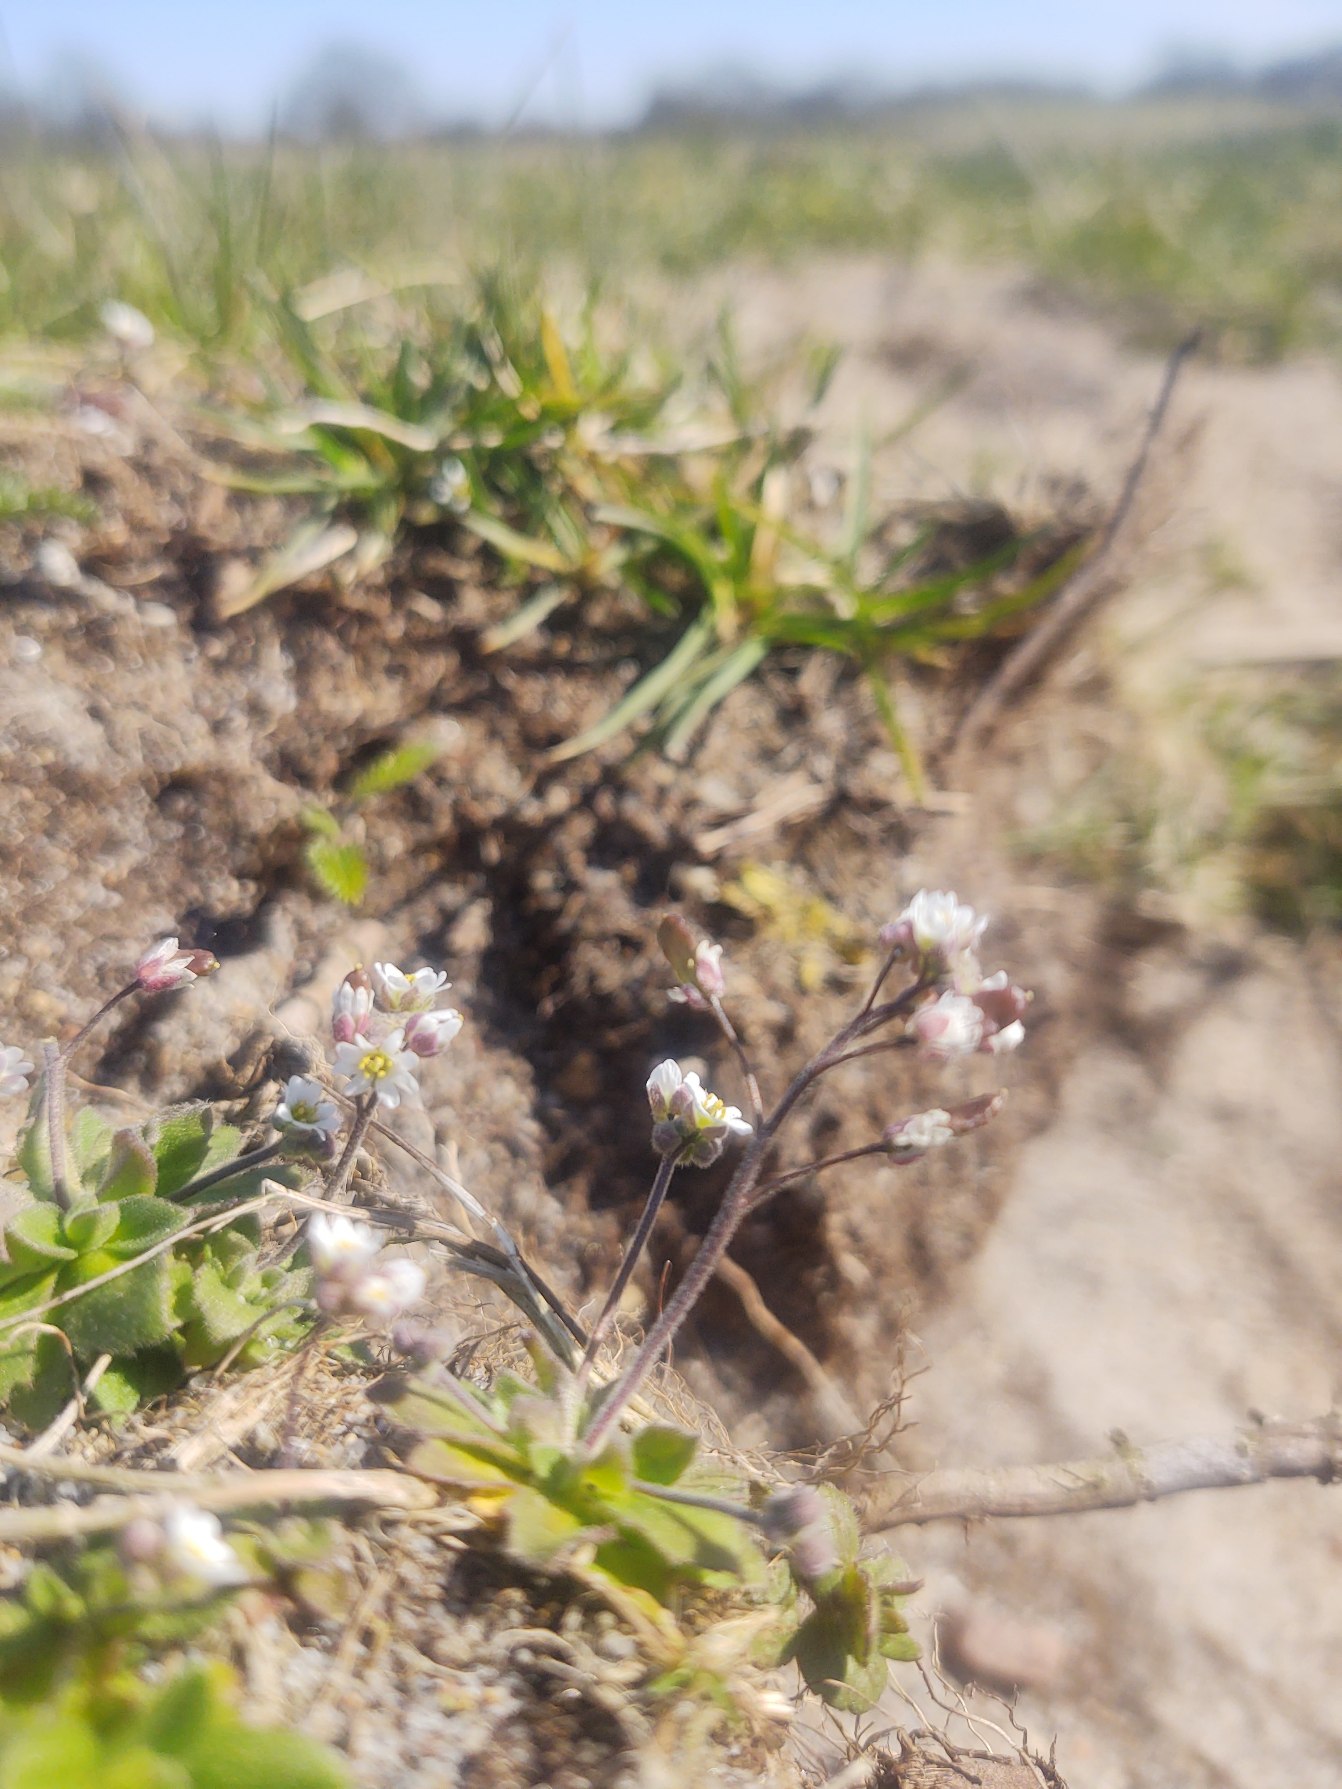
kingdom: Plantae
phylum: Tracheophyta
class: Magnoliopsida
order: Brassicales
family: Brassicaceae
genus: Draba
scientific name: Draba verna
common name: Vår-gæslingeblomst
